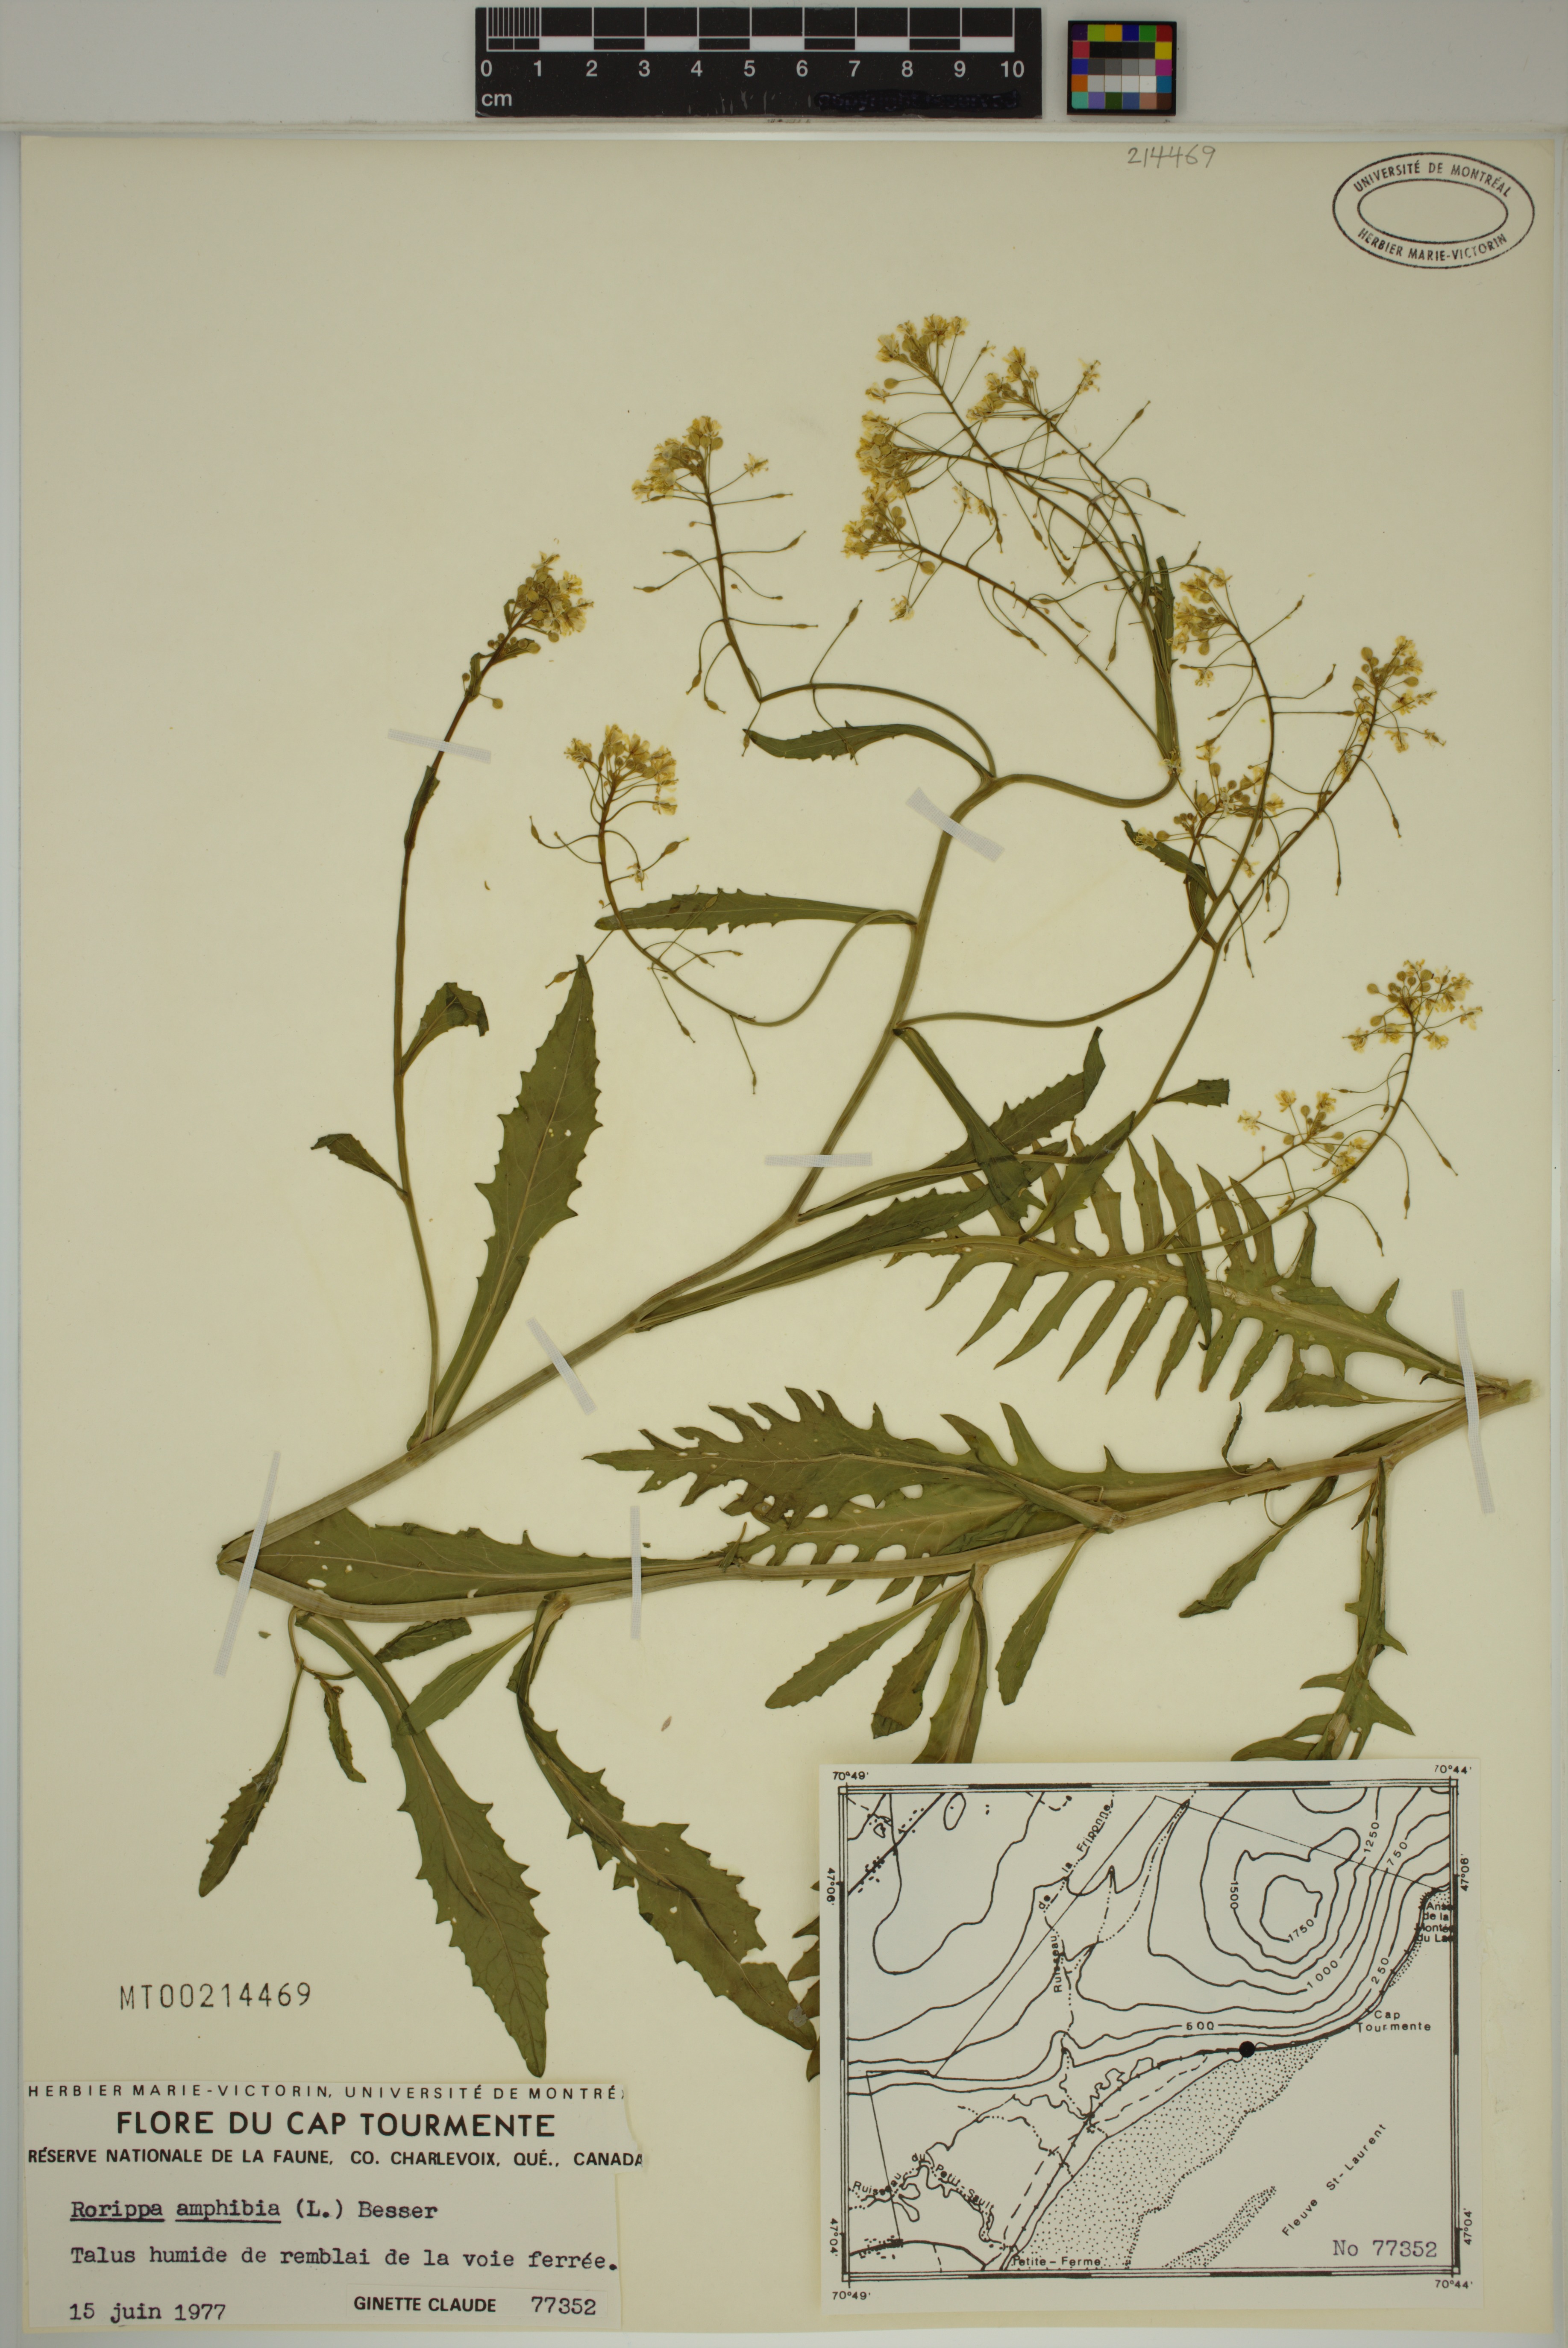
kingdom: Plantae
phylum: Tracheophyta
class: Magnoliopsida
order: Brassicales
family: Brassicaceae
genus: Rorippa
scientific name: Rorippa amphibia
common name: Great yellow-cress
